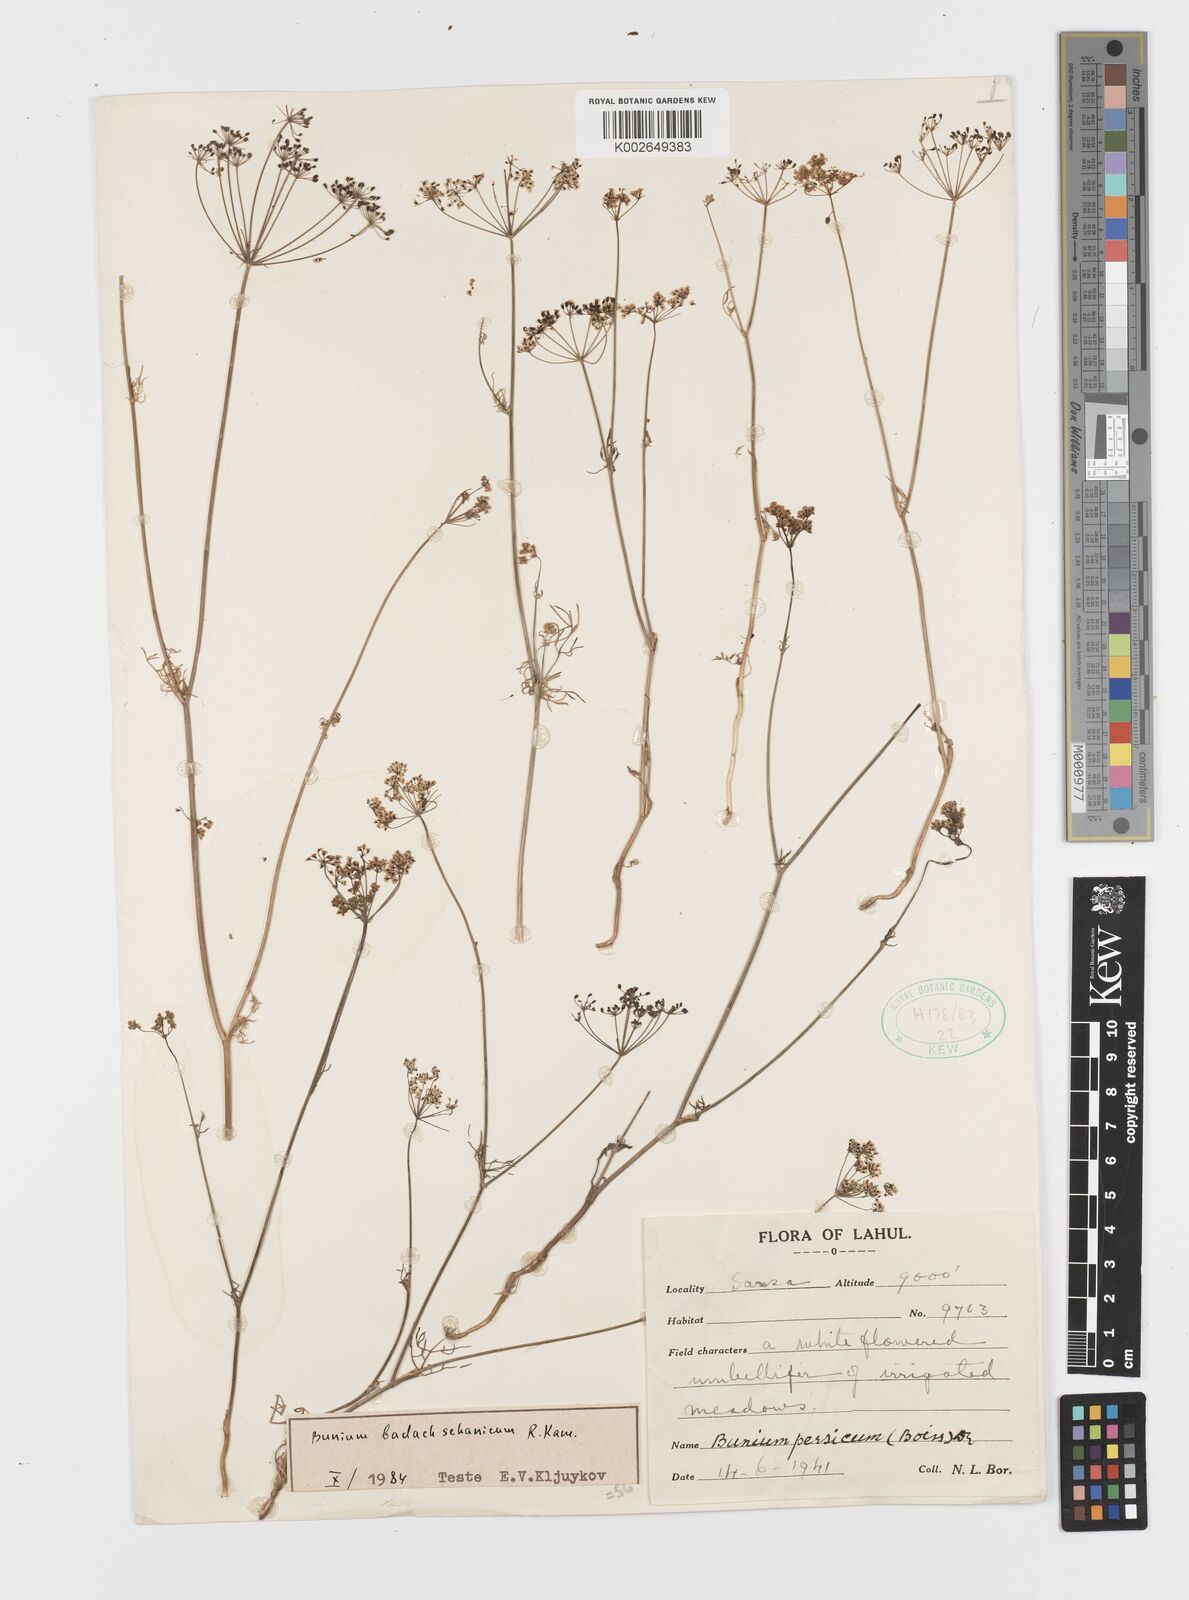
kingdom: Plantae
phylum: Tracheophyta
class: Magnoliopsida
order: Apiales
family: Apiaceae
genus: Elwendia
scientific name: Elwendia badachschanica
